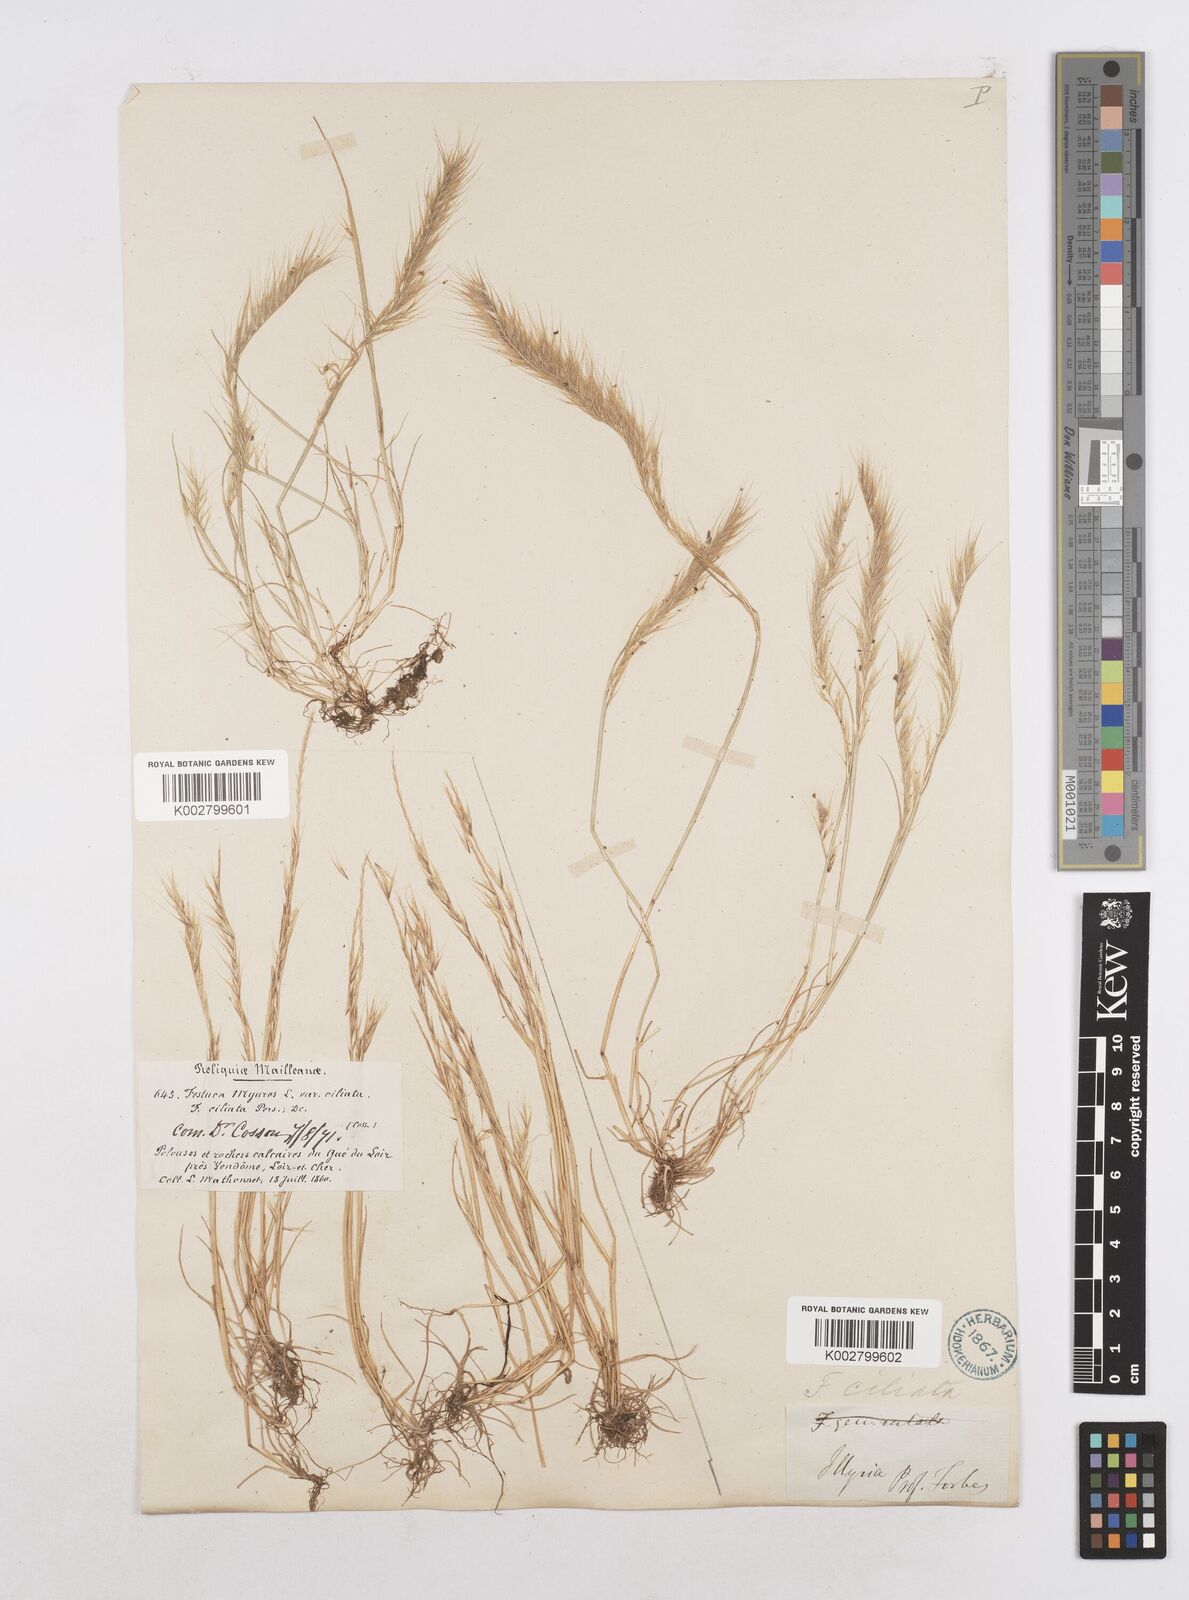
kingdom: Plantae
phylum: Tracheophyta
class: Liliopsida
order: Poales
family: Poaceae
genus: Festuca
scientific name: Festuca
